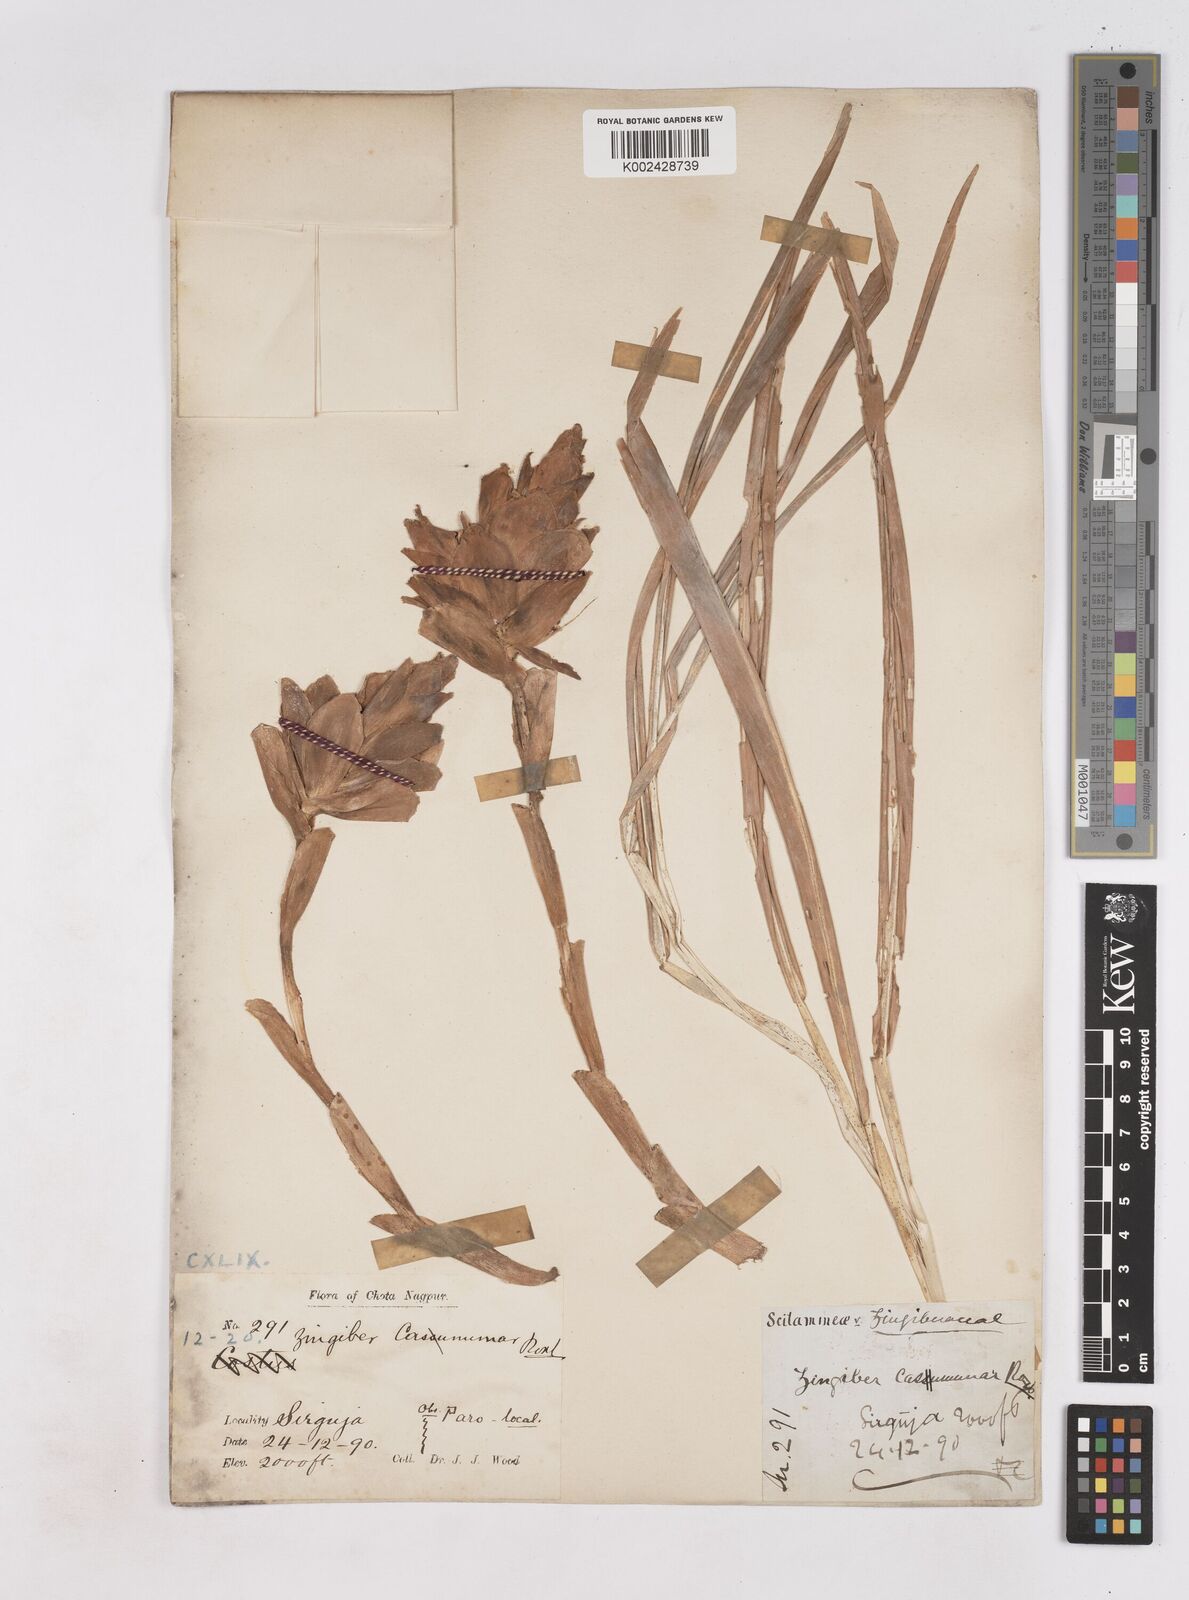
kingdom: Plantae
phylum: Tracheophyta
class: Liliopsida
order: Zingiberales
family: Zingiberaceae
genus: Zingiber
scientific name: Zingiber montanum
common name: Bengal ginger
